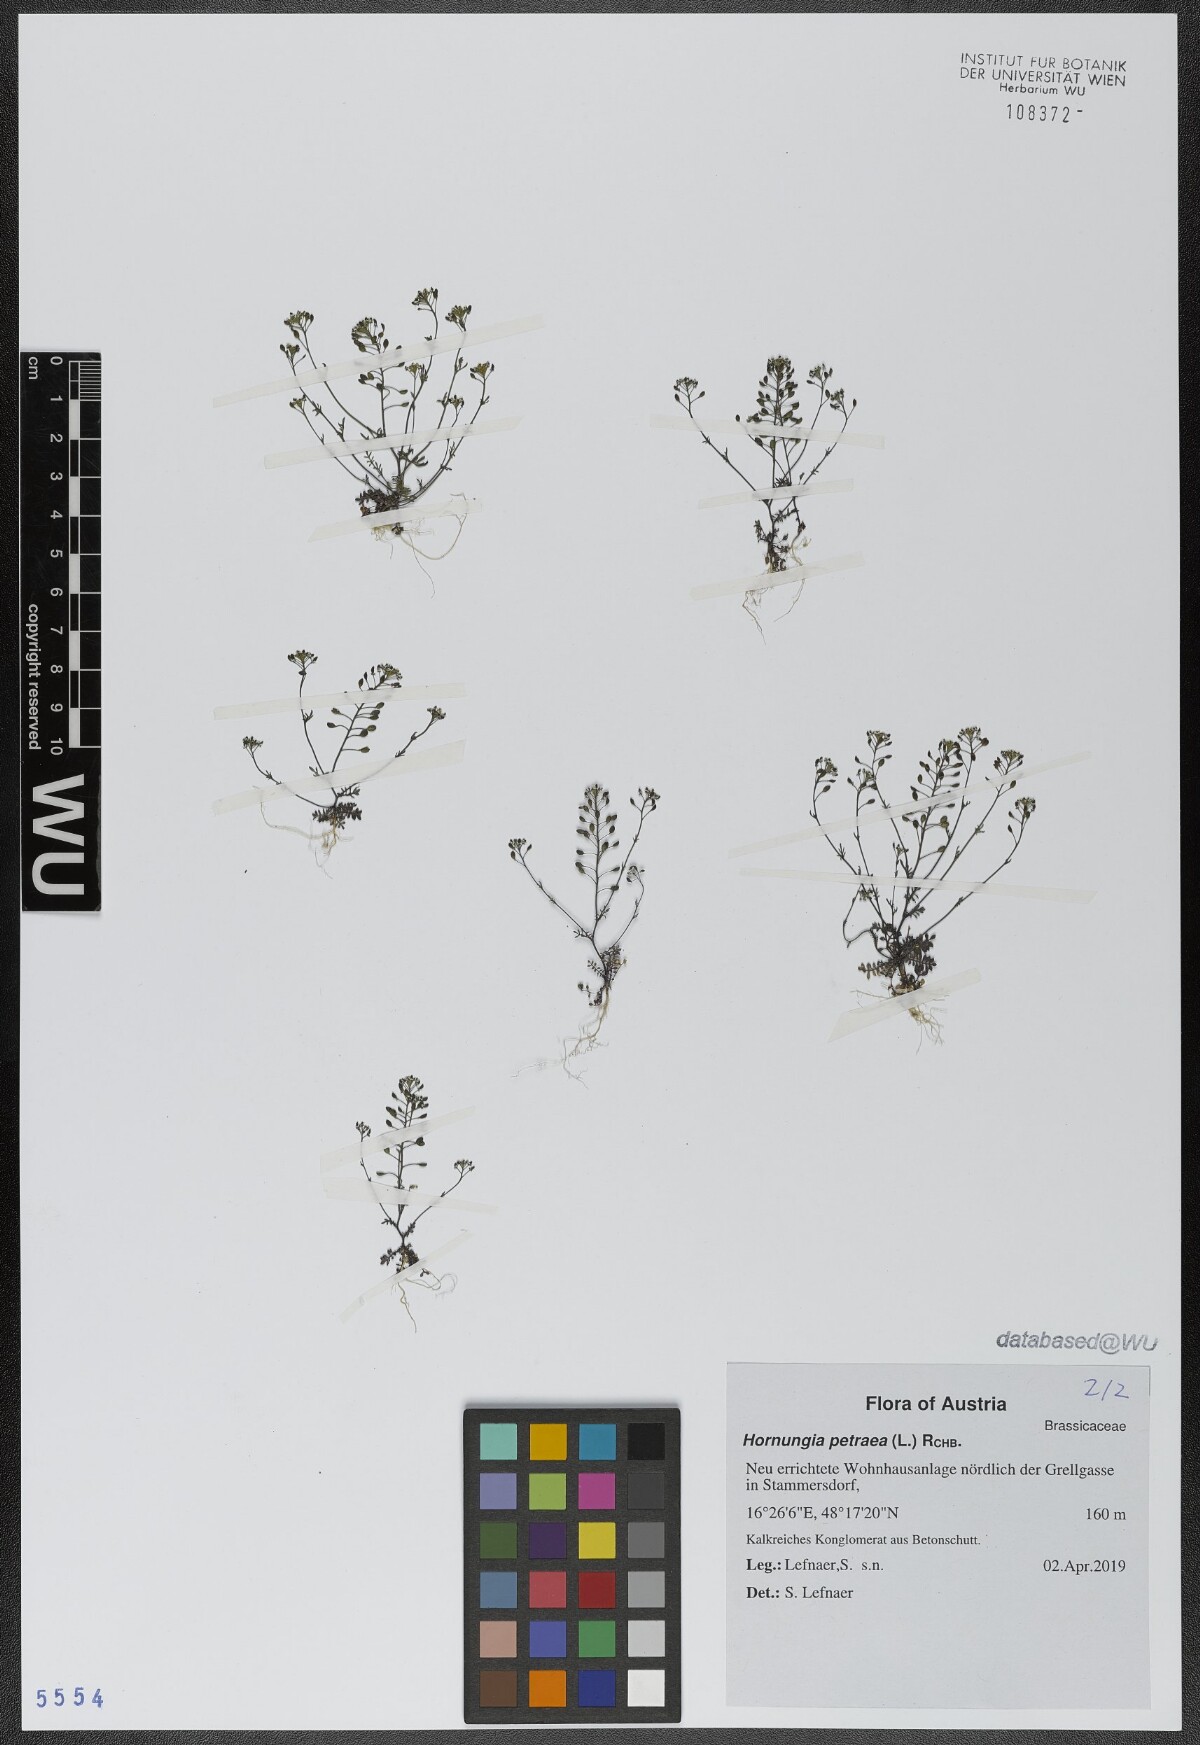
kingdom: Plantae
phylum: Tracheophyta
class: Magnoliopsida
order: Brassicales
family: Brassicaceae
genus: Hornungia
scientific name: Hornungia petraea
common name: Hutchinsia
